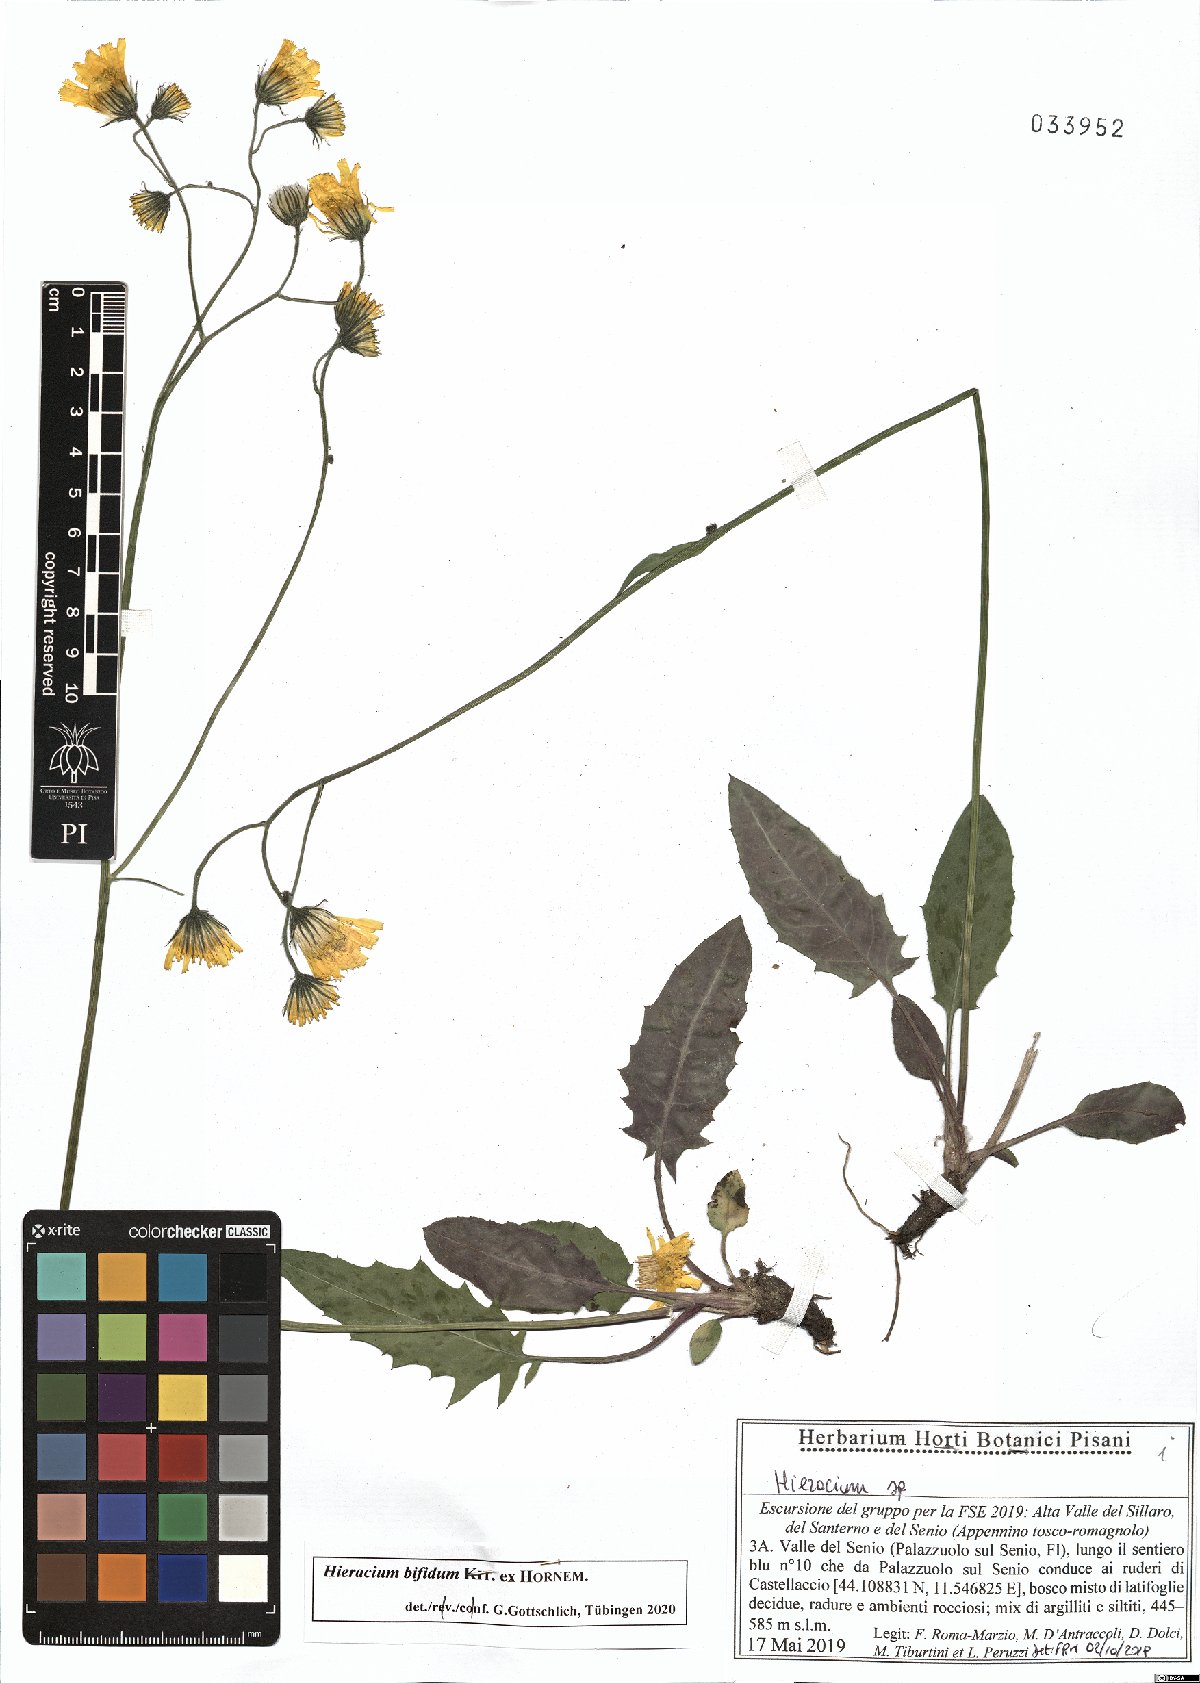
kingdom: Plantae
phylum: Tracheophyta
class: Magnoliopsida
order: Asterales
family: Asteraceae
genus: Hieracium
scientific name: Hieracium bifidum
